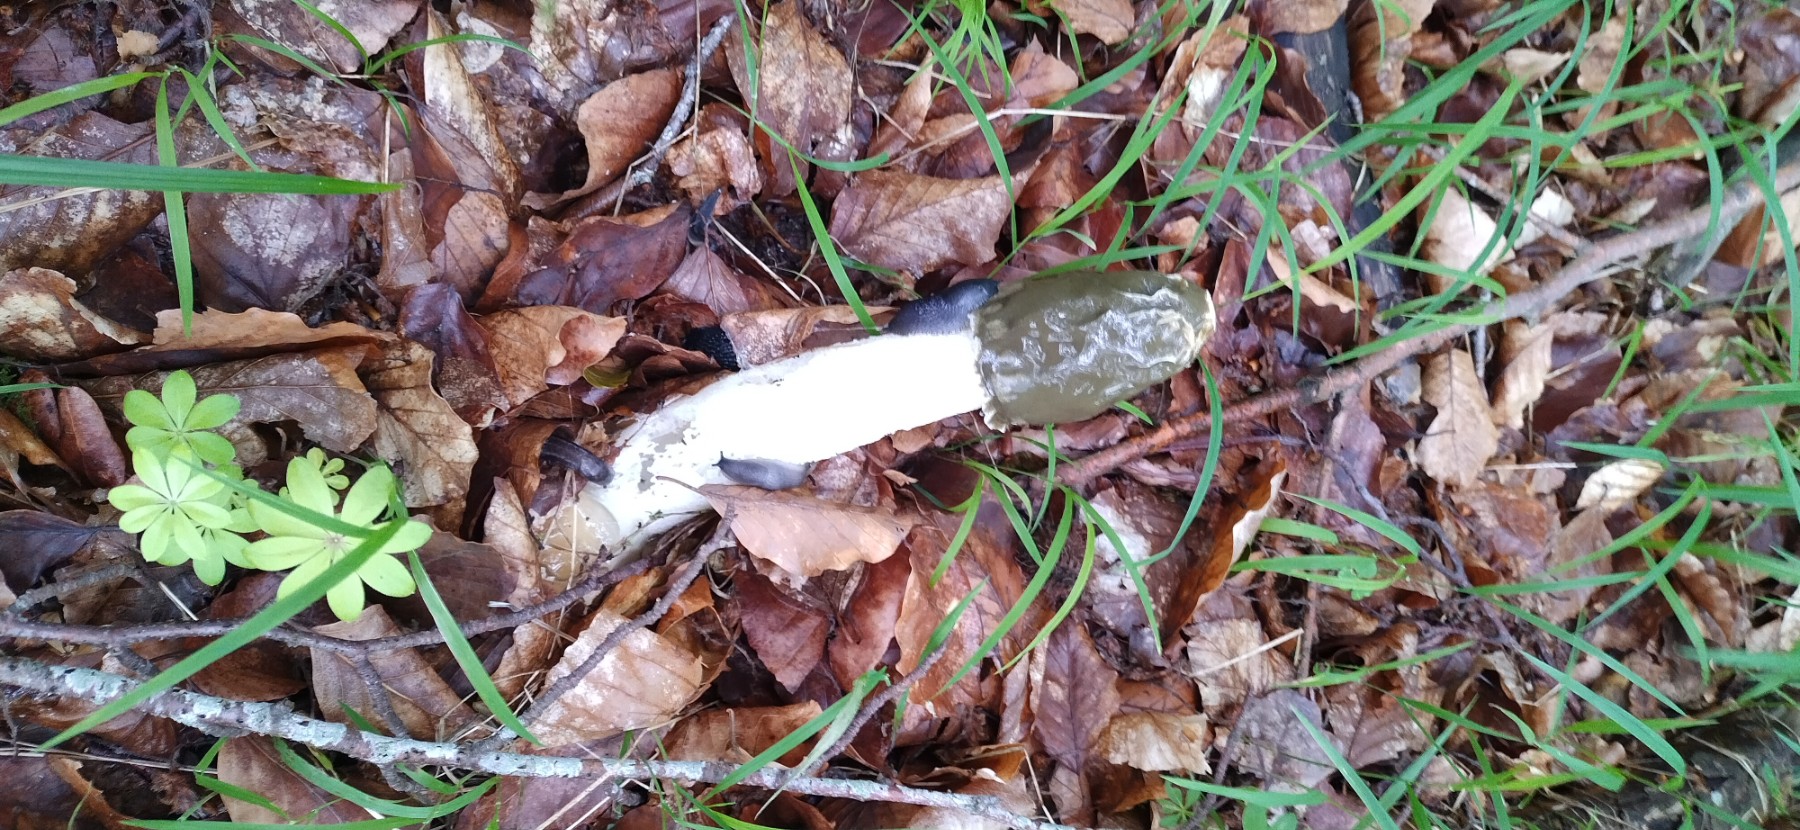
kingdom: Fungi
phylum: Basidiomycota
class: Agaricomycetes
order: Phallales
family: Phallaceae
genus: Phallus
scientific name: Phallus impudicus
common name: almindelig stinksvamp
